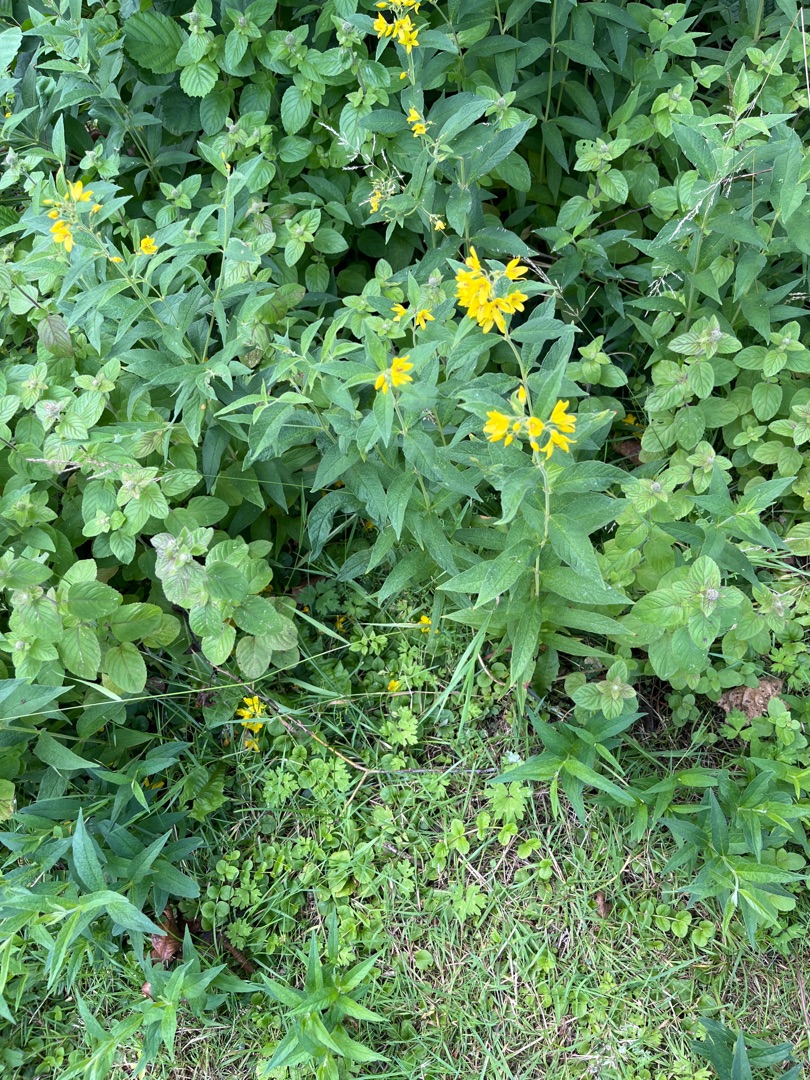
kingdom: Plantae
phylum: Tracheophyta
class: Magnoliopsida
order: Ericales
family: Primulaceae
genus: Lysimachia
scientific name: Lysimachia vulgaris
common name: Almindelig fredløs
